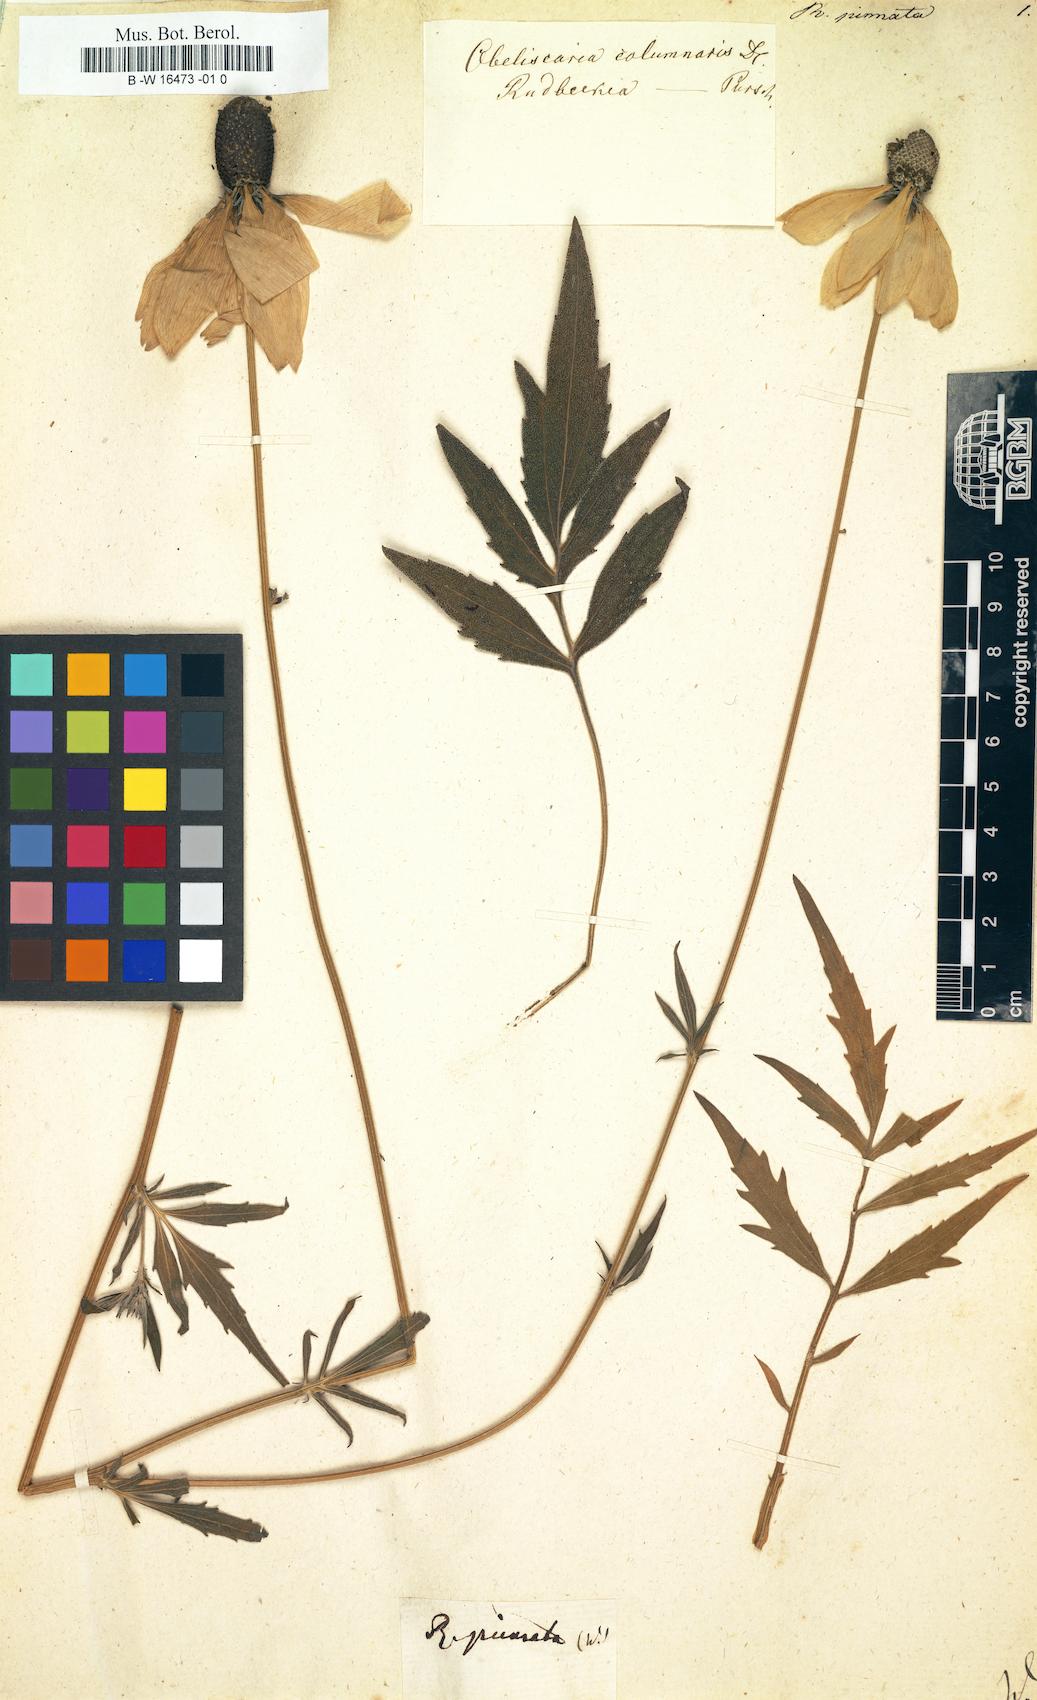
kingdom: Plantae
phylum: Tracheophyta
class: Magnoliopsida
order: Asterales
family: Asteraceae
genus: Ratibida
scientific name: Ratibida pinnata
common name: Drooping prairie-coneflower
